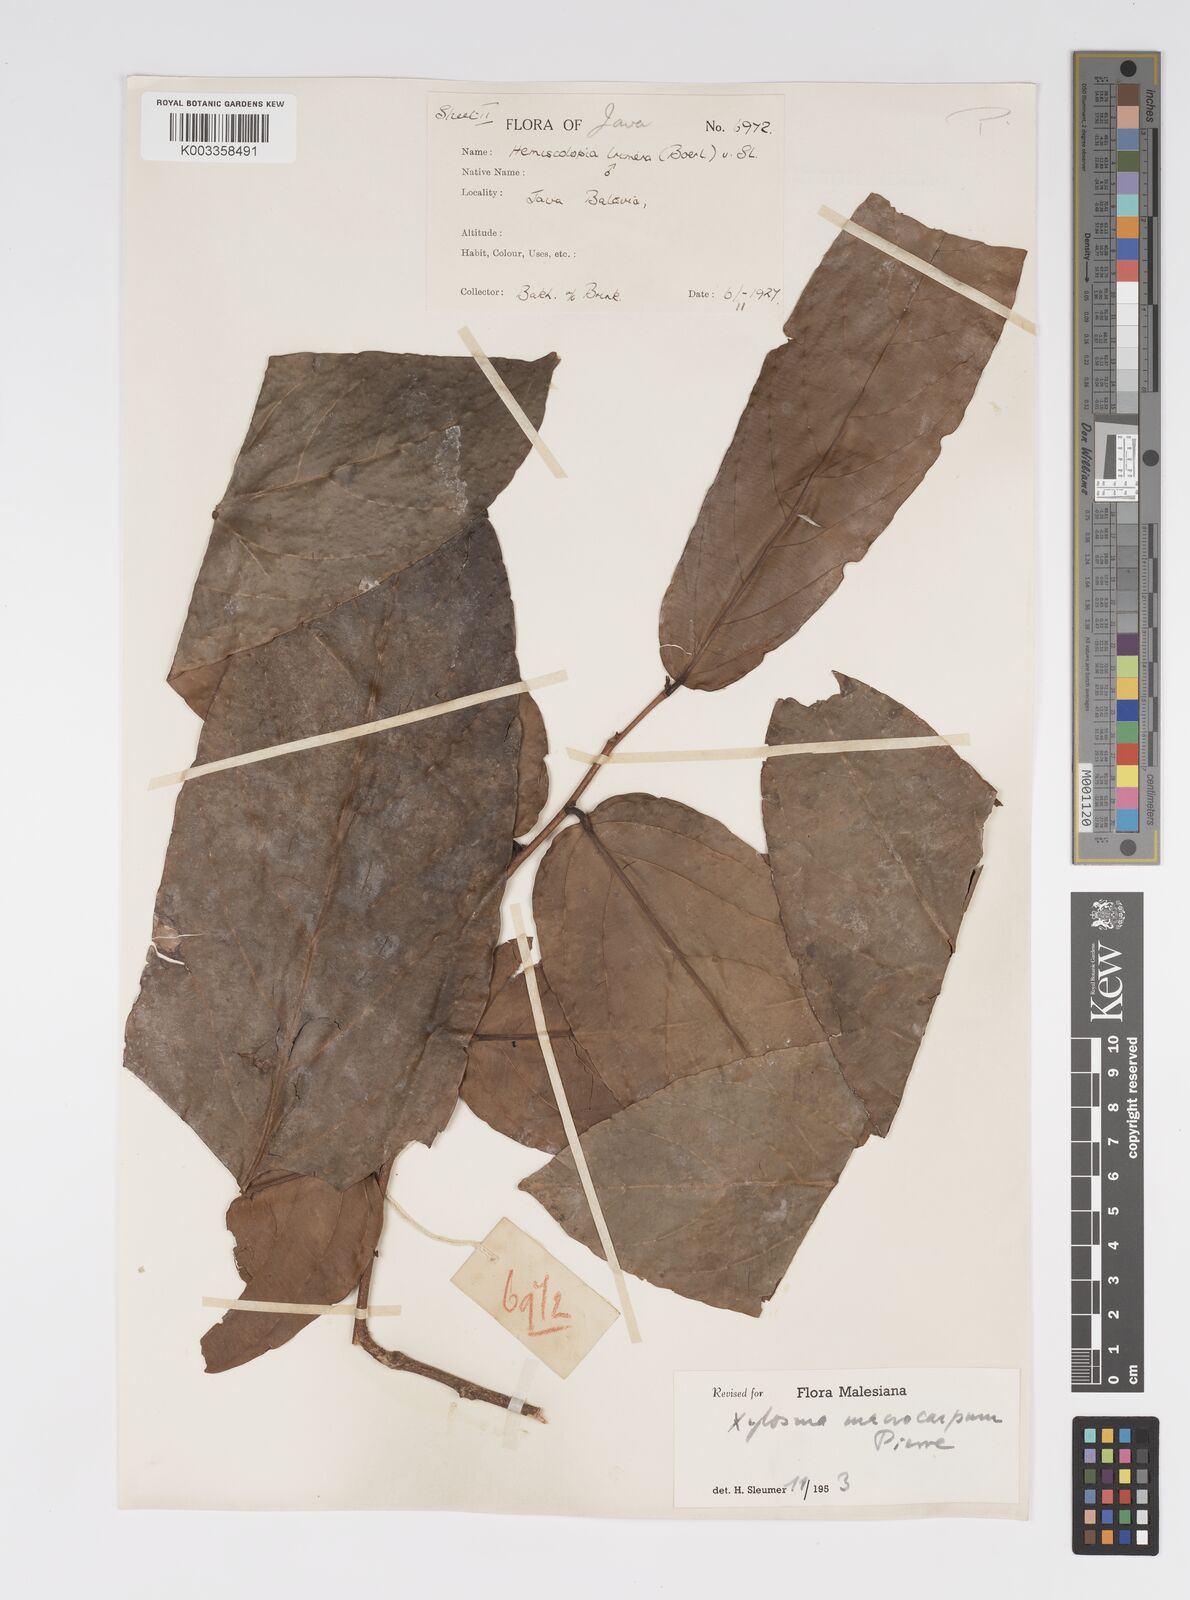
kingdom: Plantae
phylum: Tracheophyta
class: Magnoliopsida
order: Malpighiales
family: Salicaceae
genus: Hemiscolopia
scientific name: Hemiscolopia trimera
